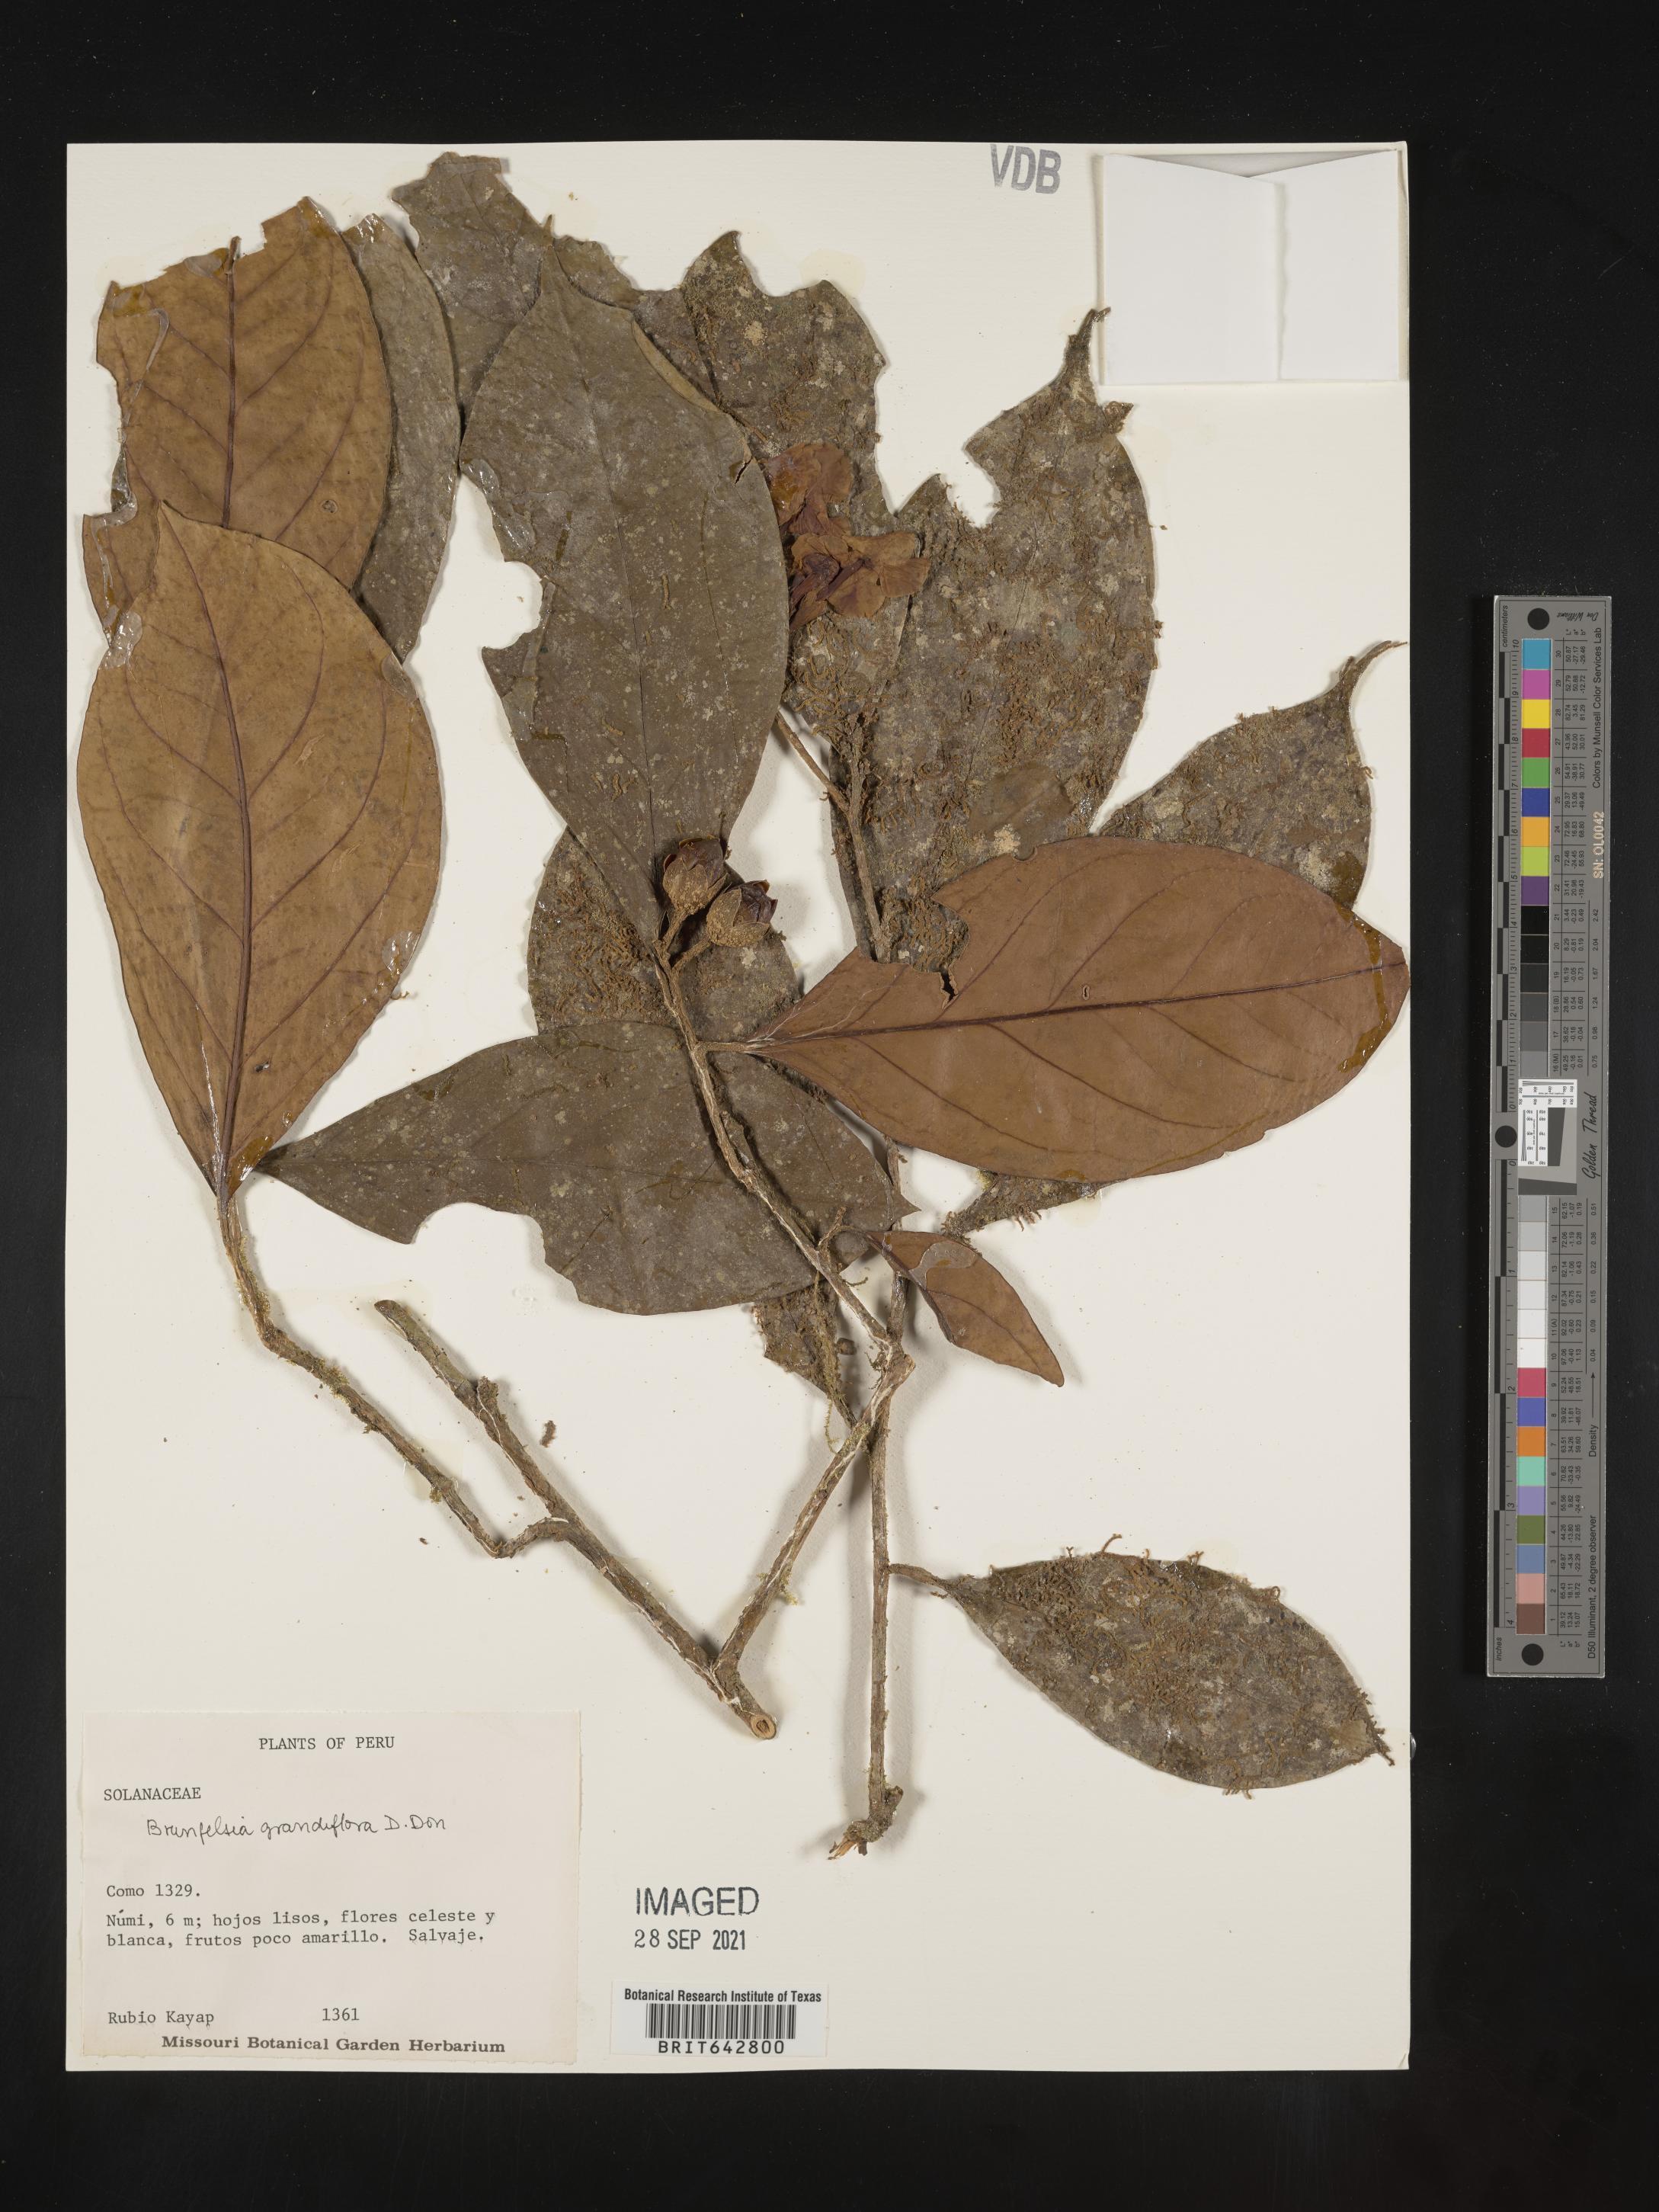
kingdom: Plantae
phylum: Tracheophyta
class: Magnoliopsida
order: Solanales
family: Solanaceae
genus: Brunfelsia
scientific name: Brunfelsia
